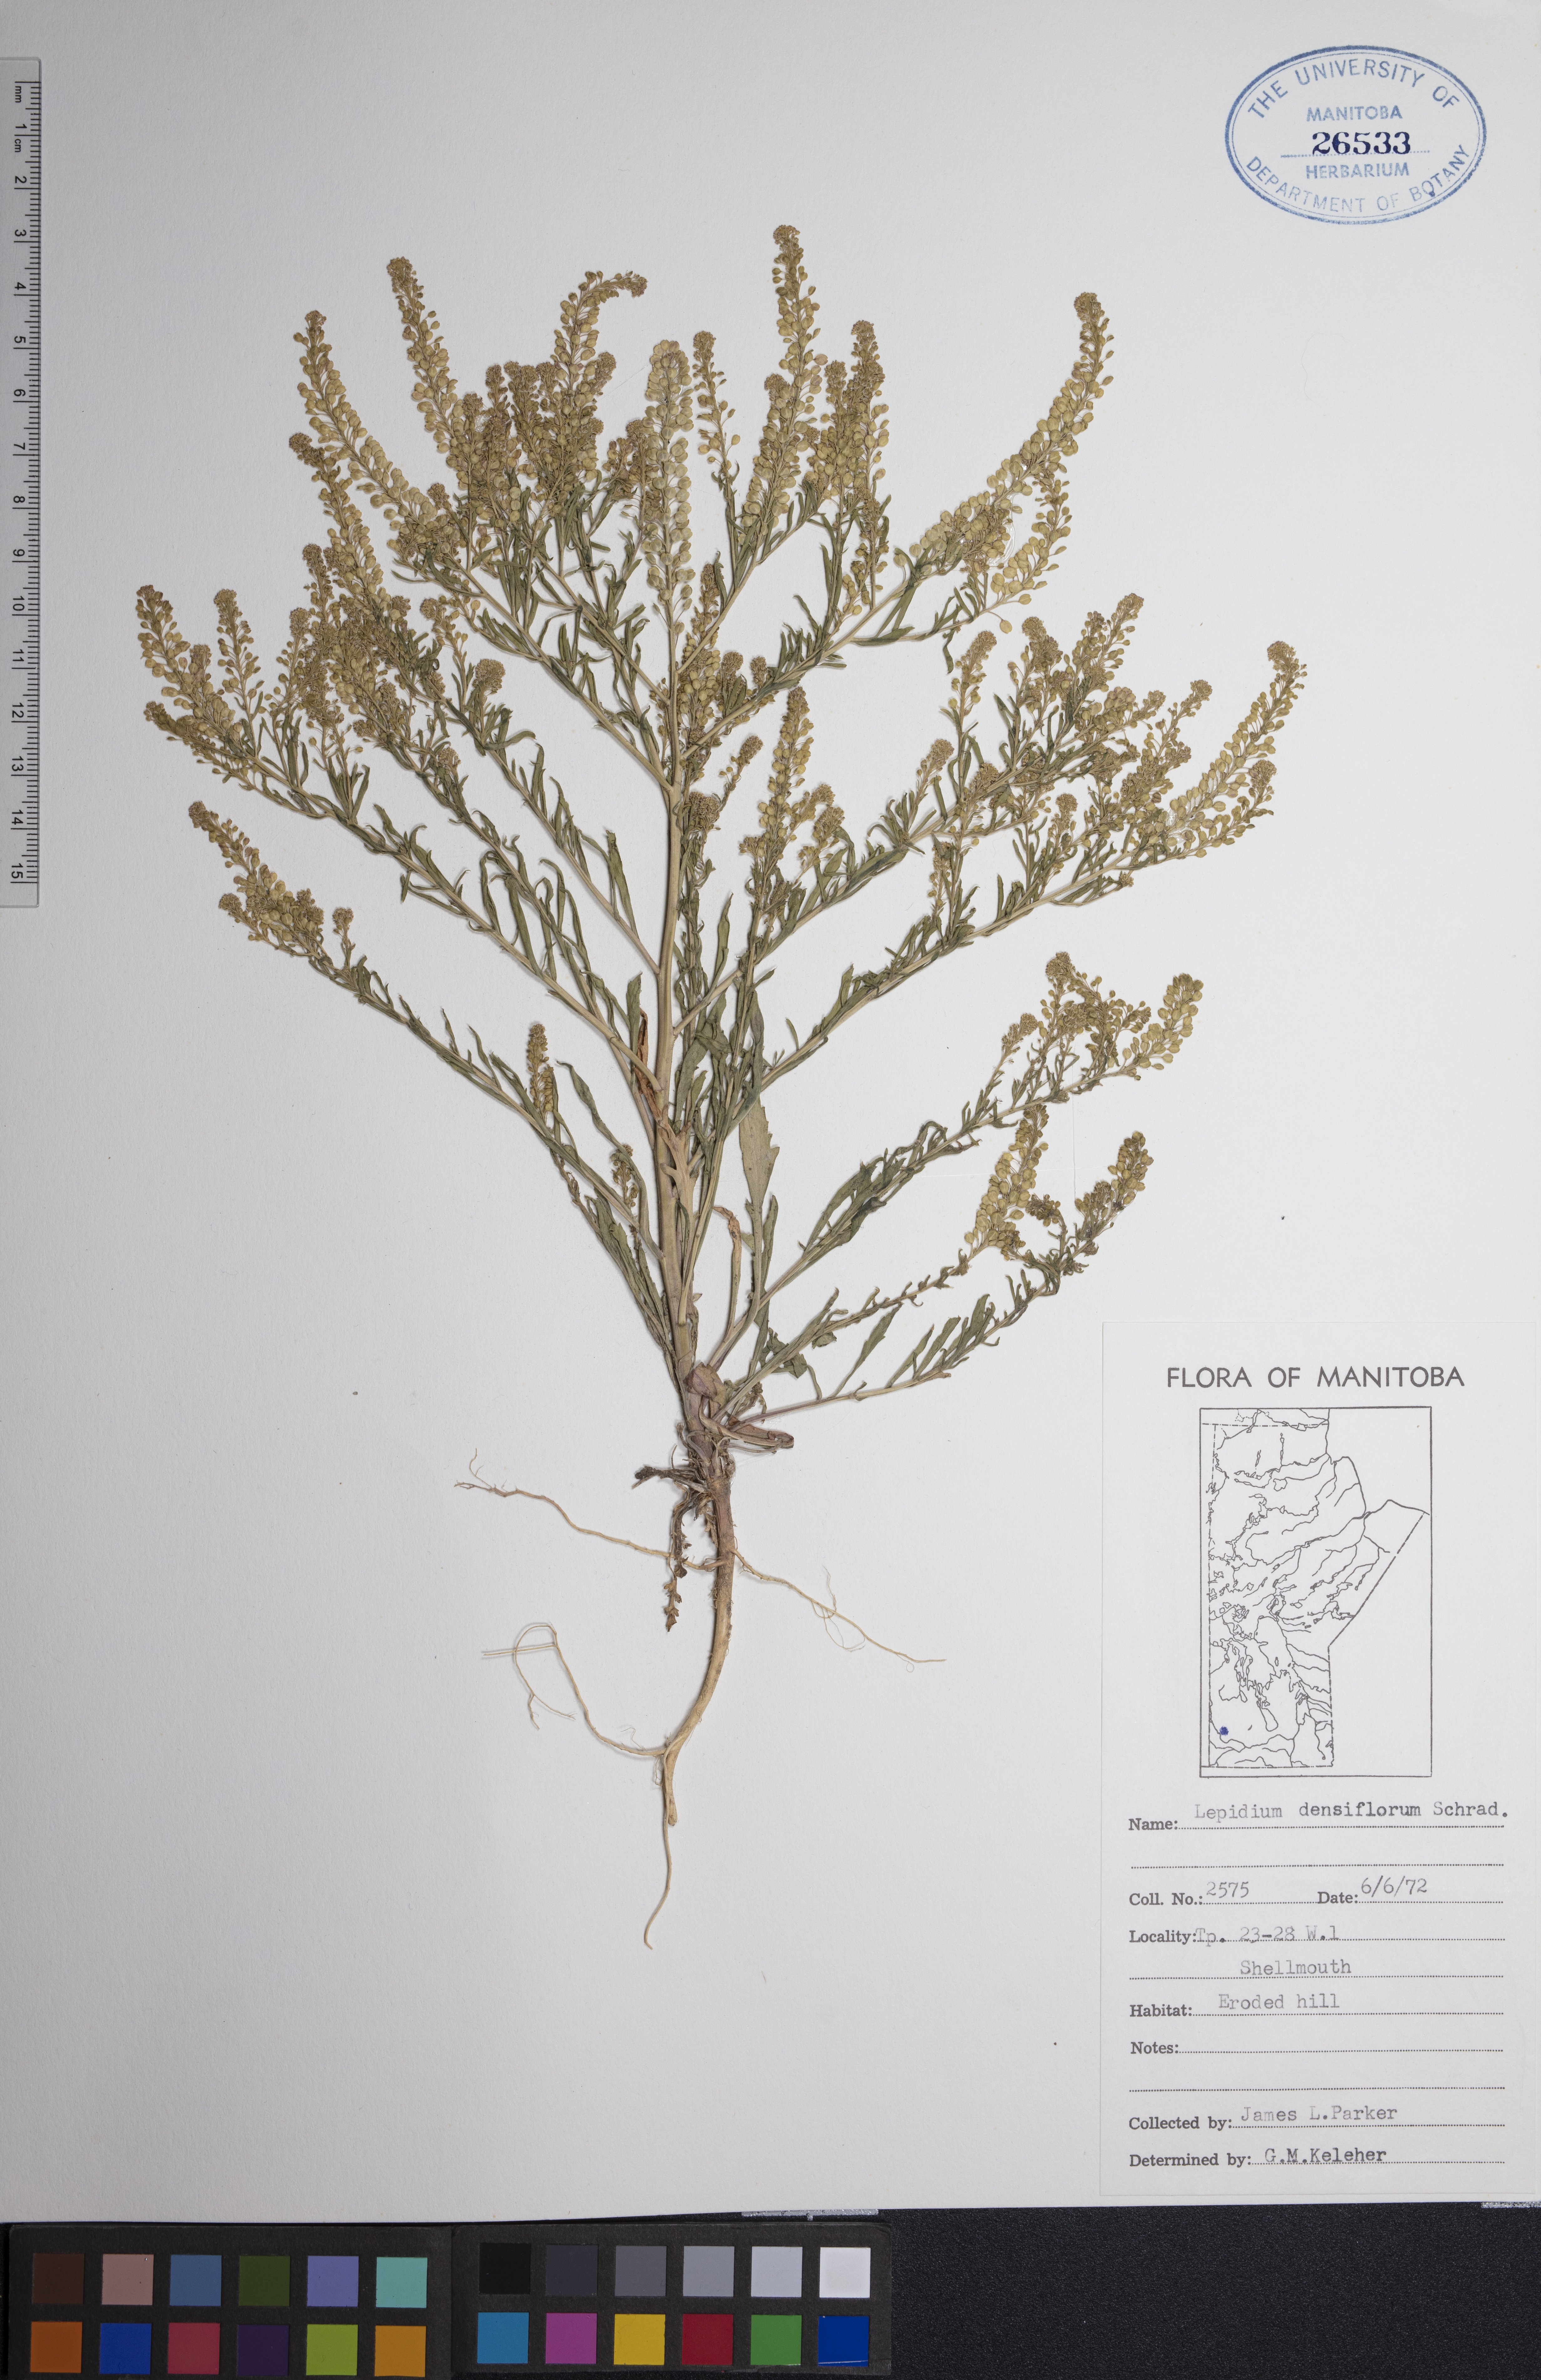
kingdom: Plantae
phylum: Tracheophyta
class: Magnoliopsida
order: Brassicales
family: Brassicaceae
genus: Lepidium
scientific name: Lepidium densiflorum
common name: Miner's pepperwort
